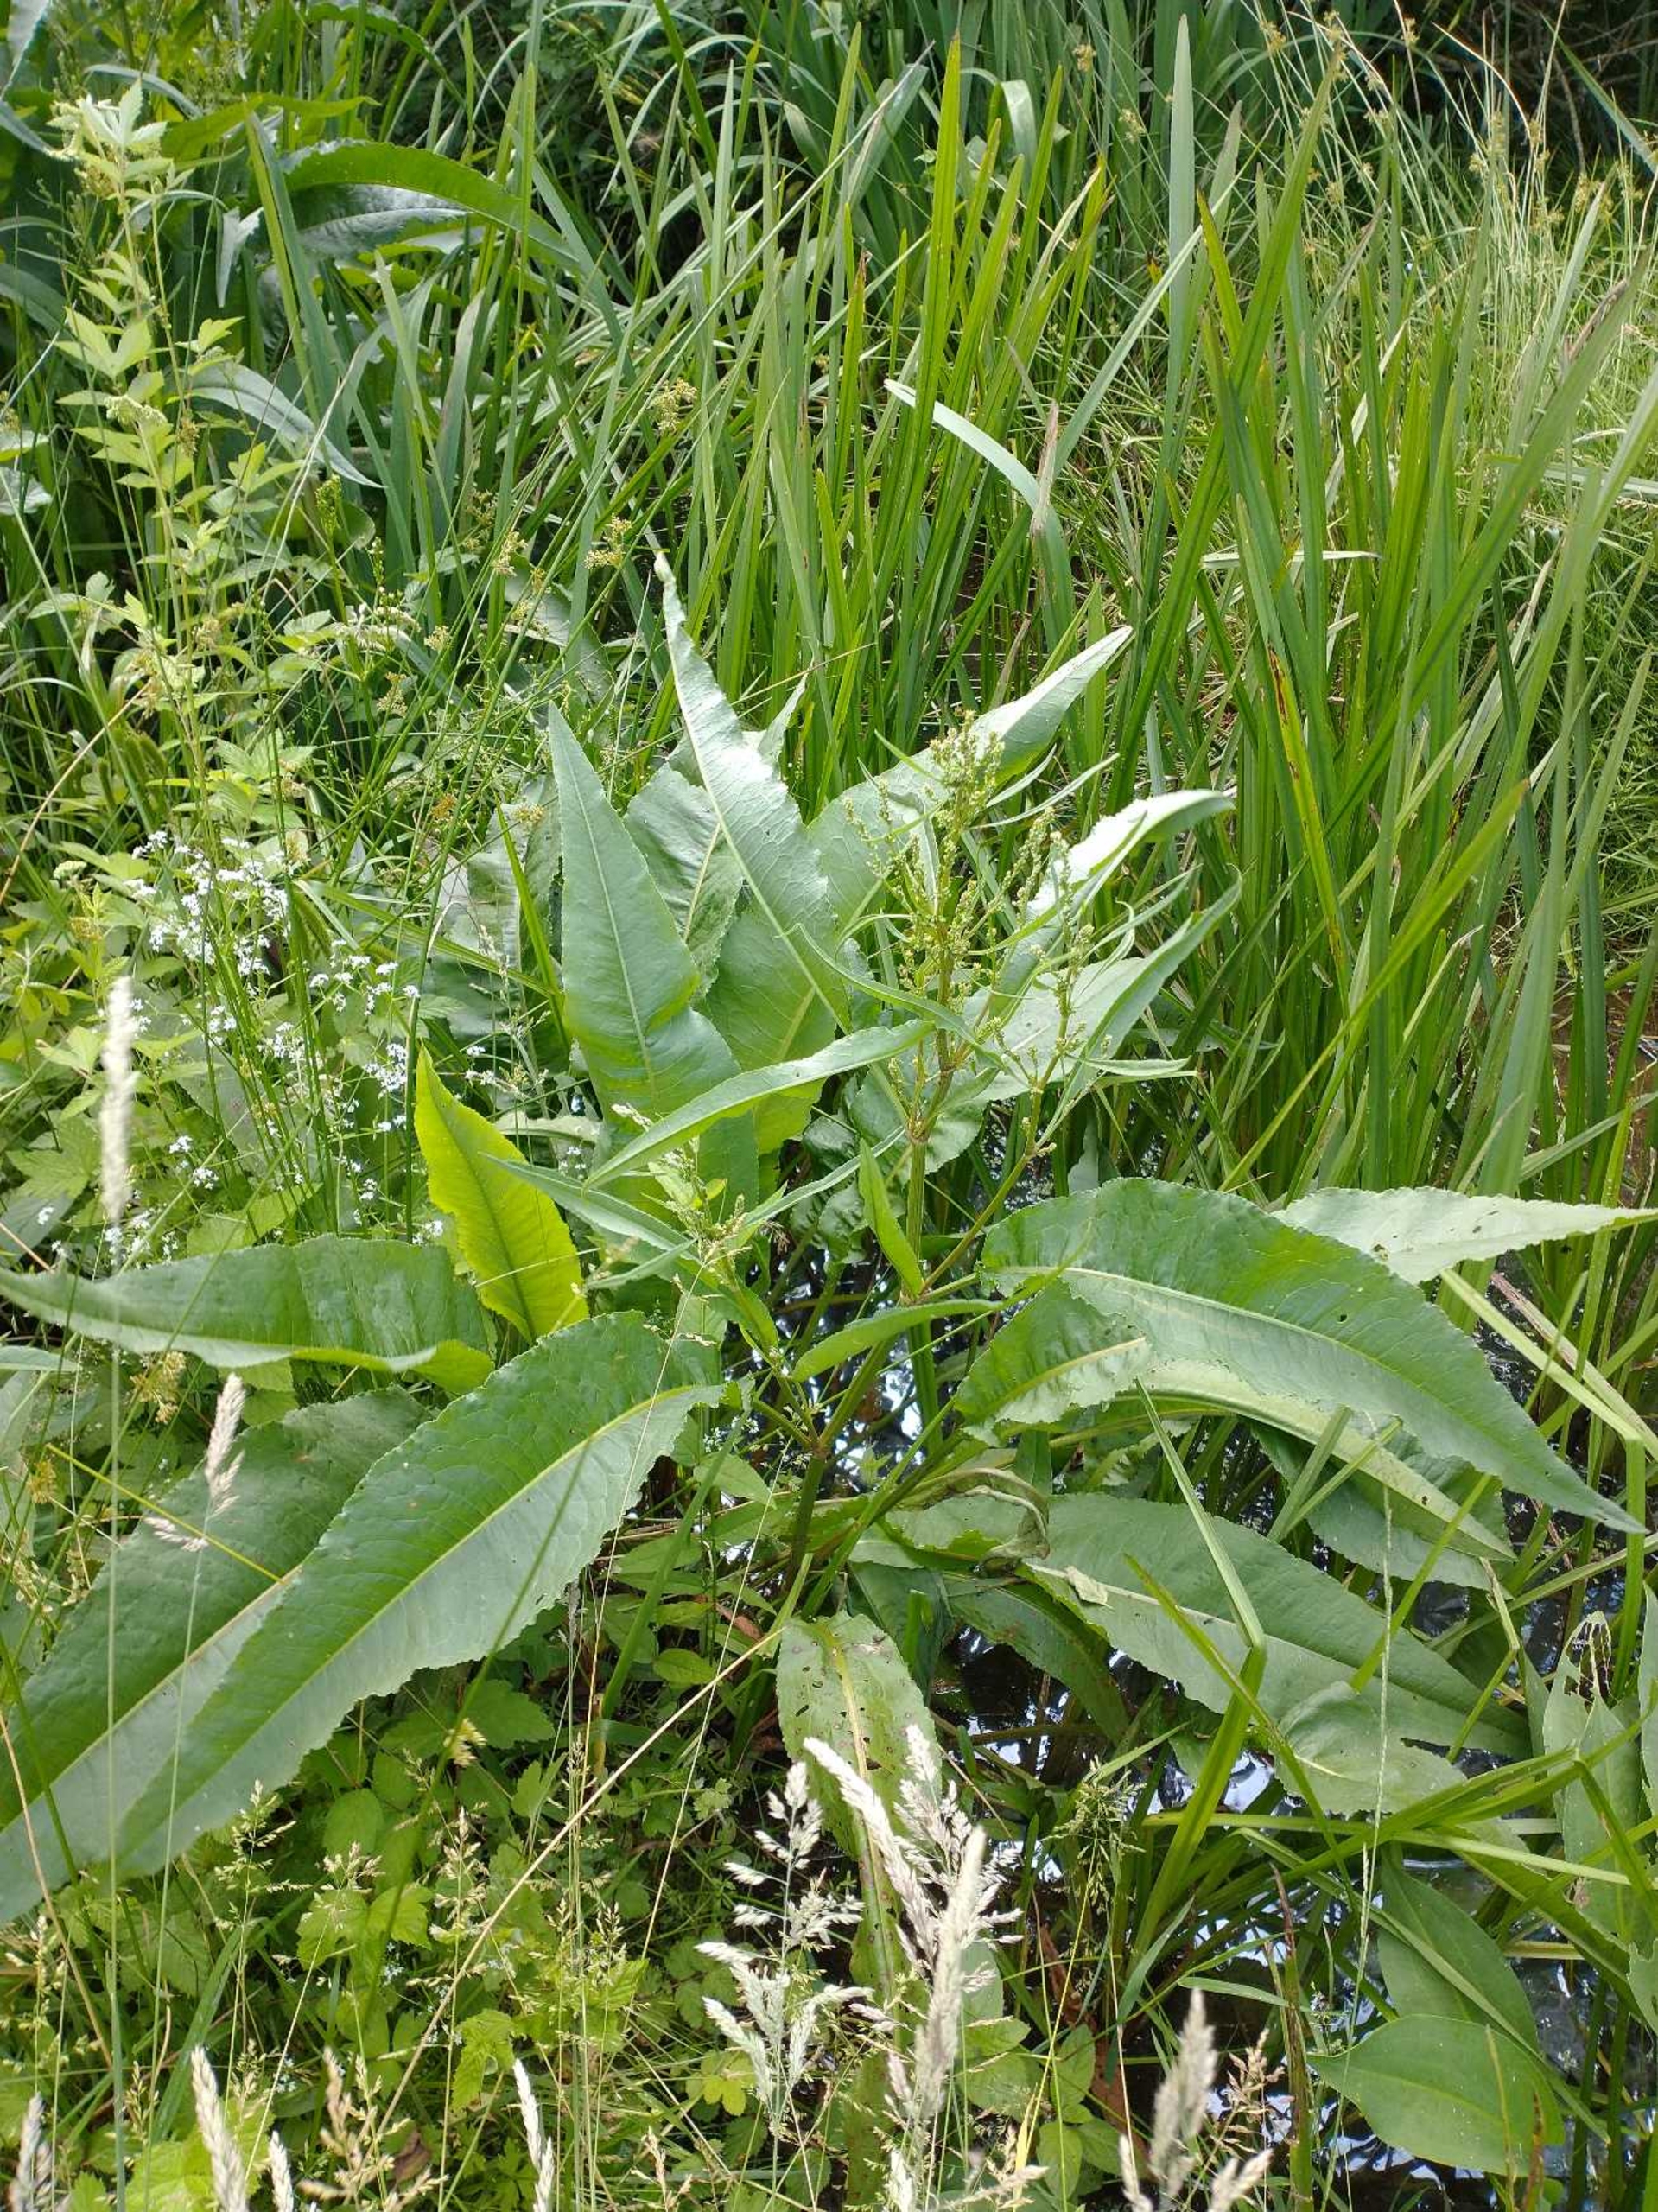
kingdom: Plantae
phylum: Tracheophyta
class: Magnoliopsida
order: Caryophyllales
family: Polygonaceae
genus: Rumex
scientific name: Rumex
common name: Vand-skræppe × butbladet skræppe
